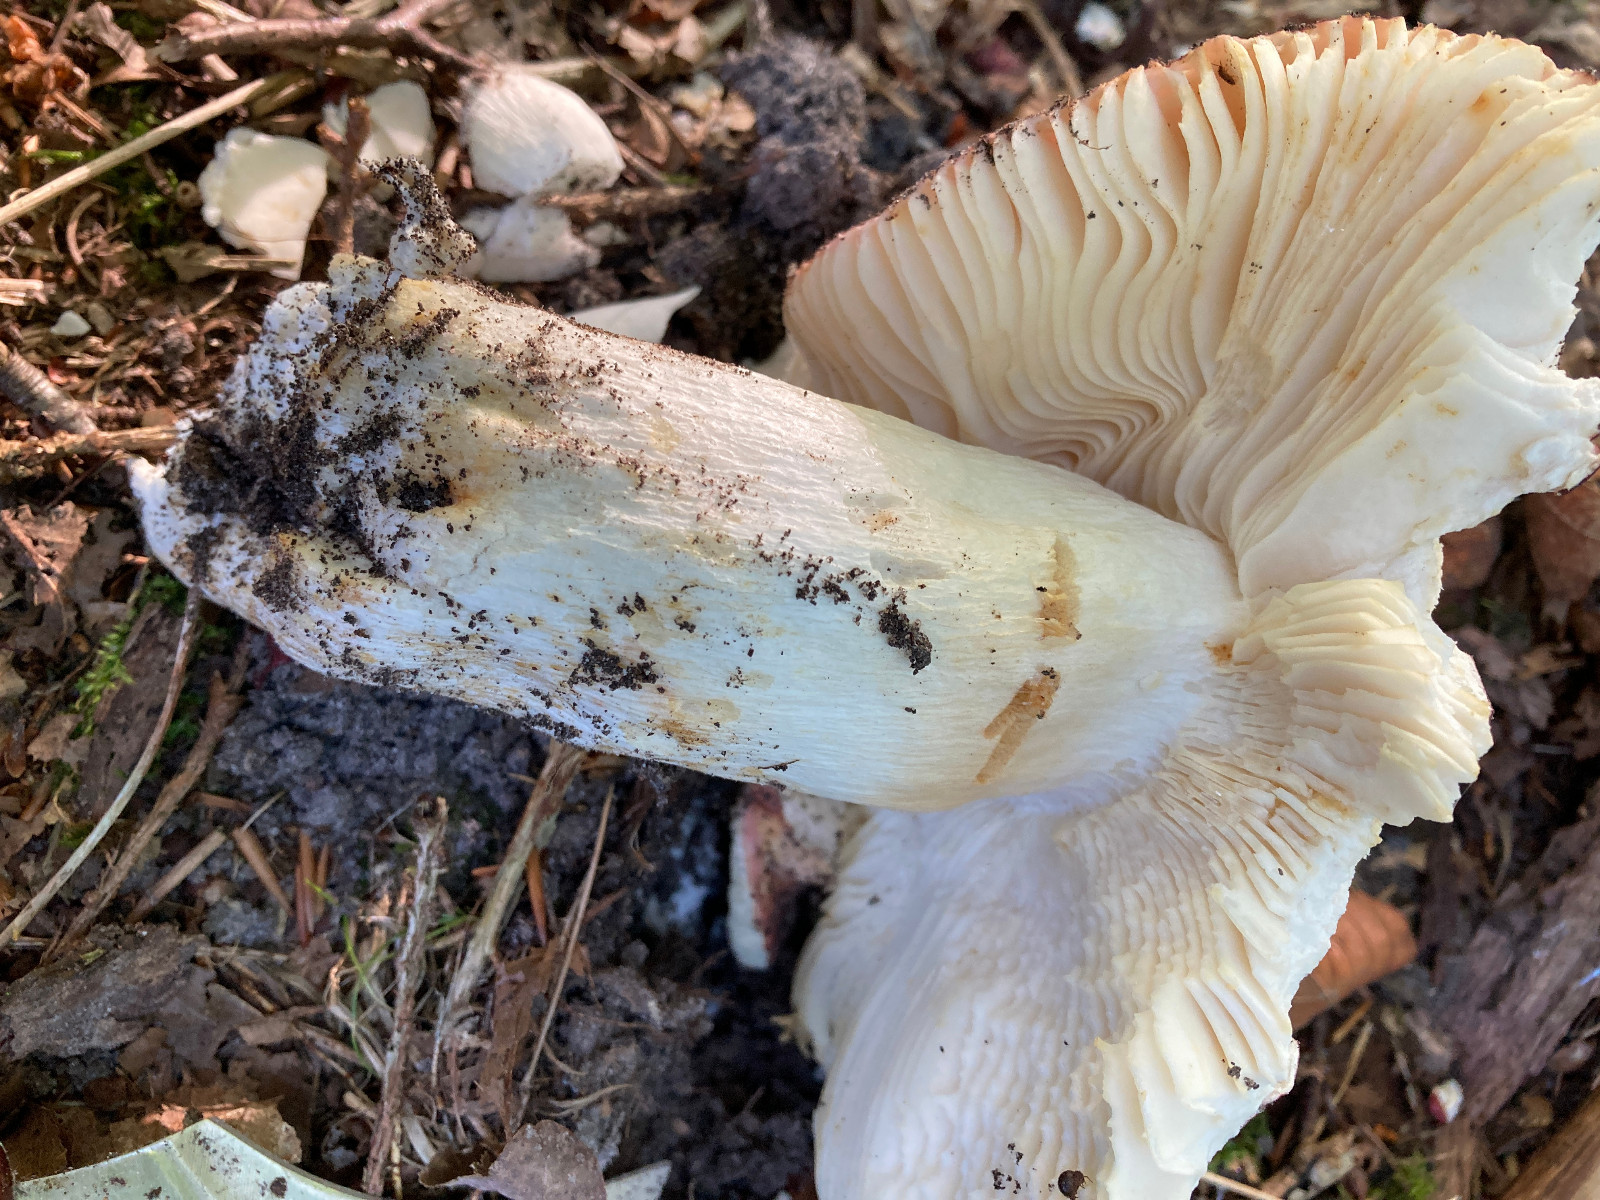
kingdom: Fungi
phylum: Basidiomycota
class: Agaricomycetes
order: Russulales
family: Russulaceae
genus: Russula
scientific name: Russula
